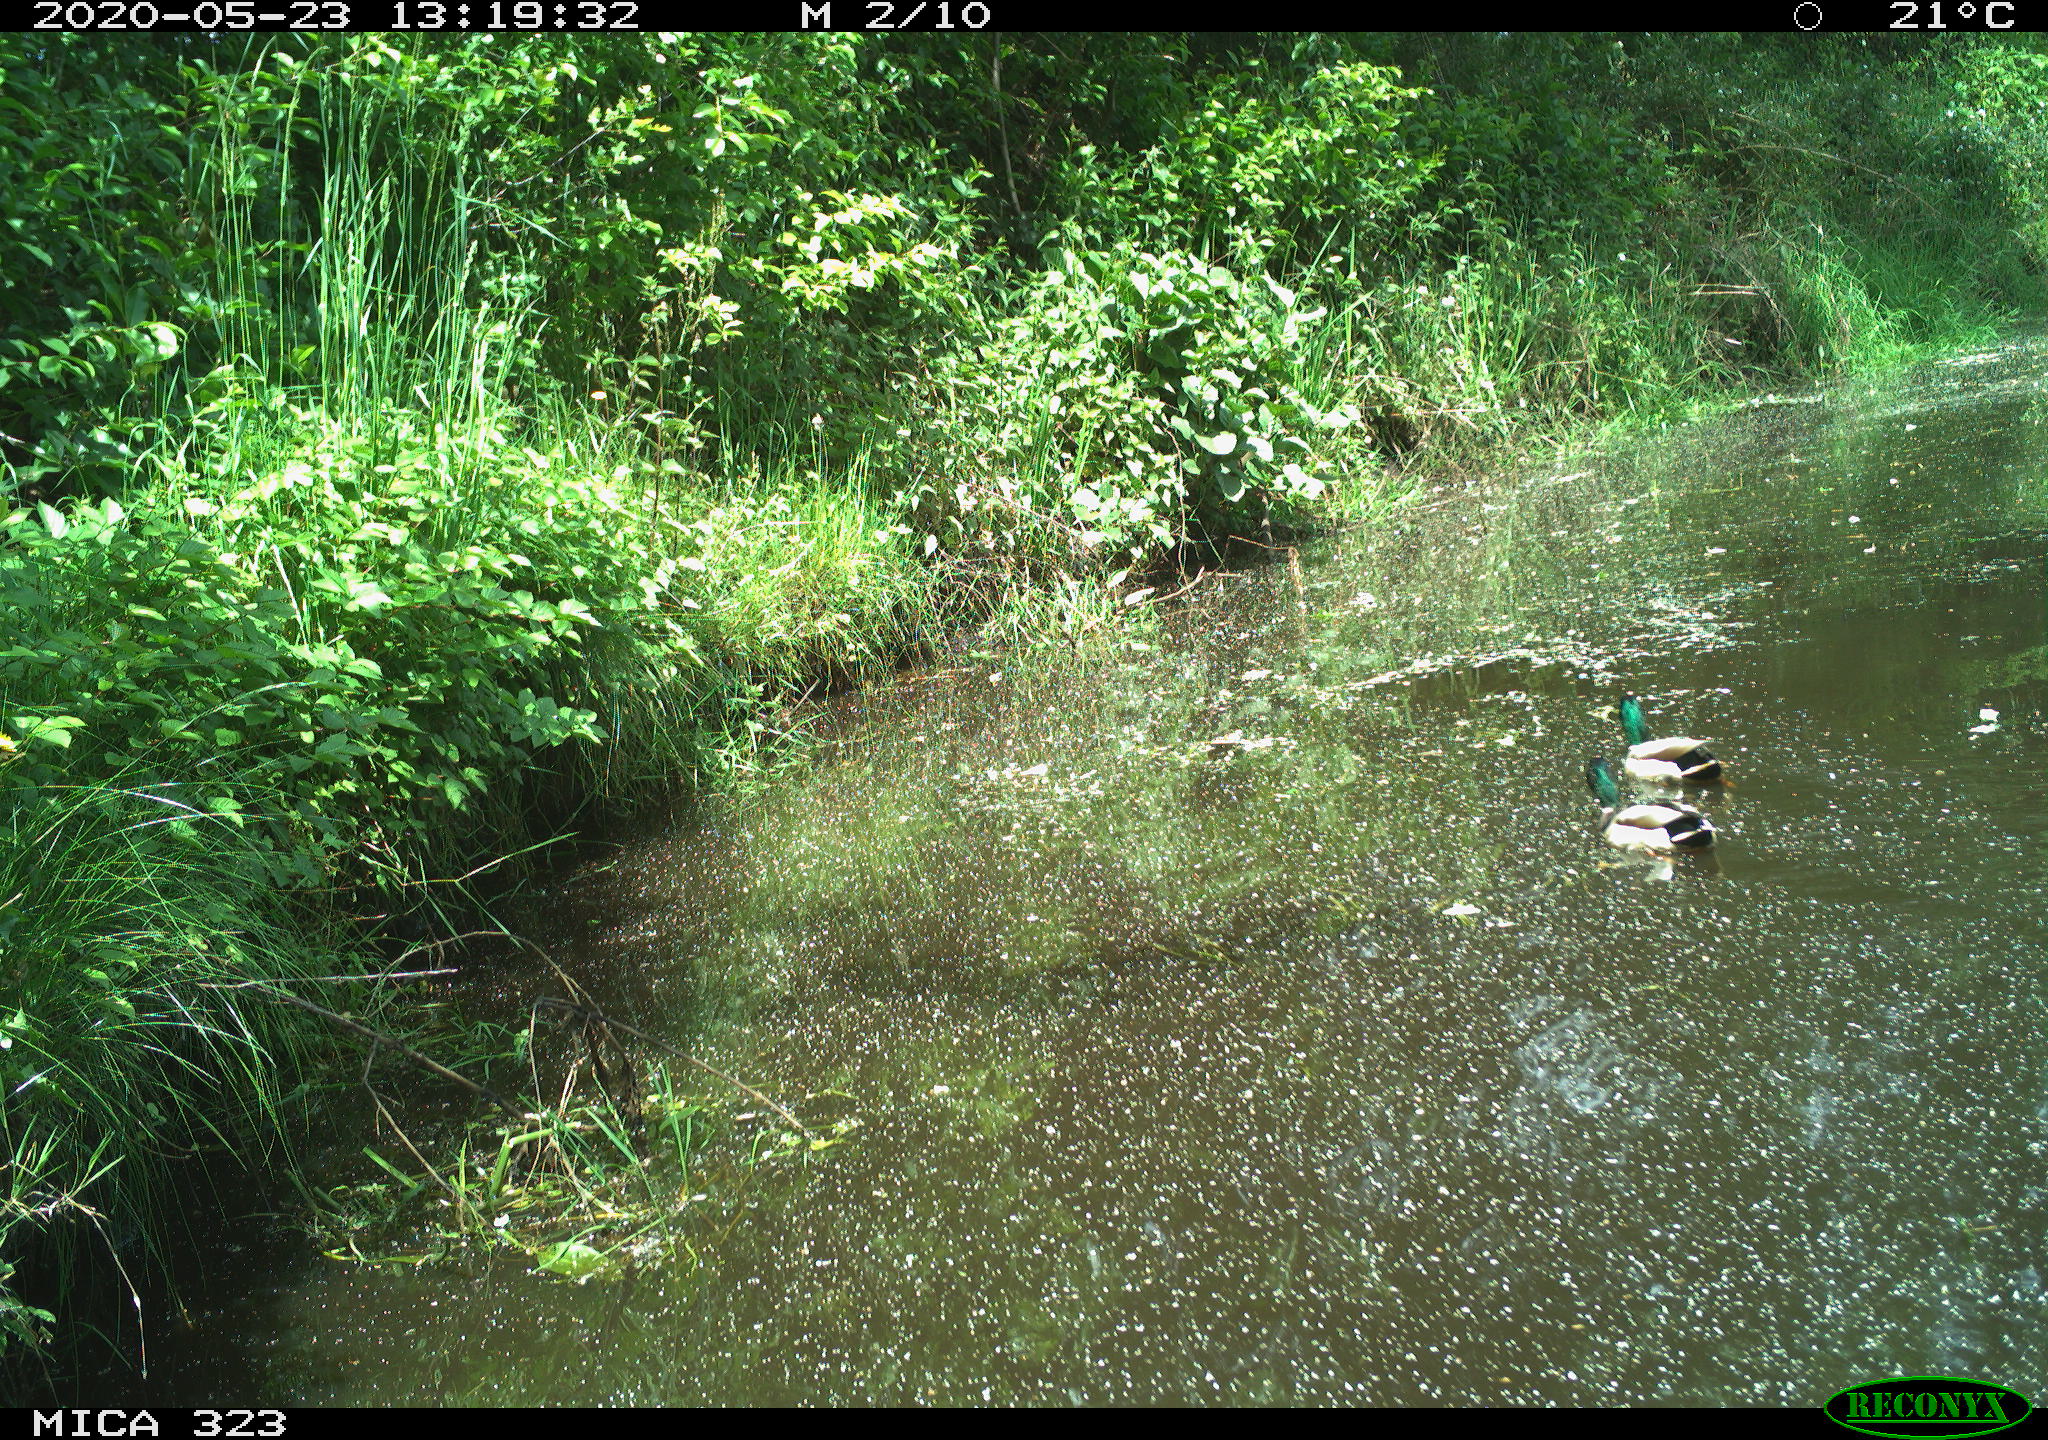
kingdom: Animalia
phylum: Chordata
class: Aves
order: Anseriformes
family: Anatidae
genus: Anas
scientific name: Anas platyrhynchos
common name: Mallard
